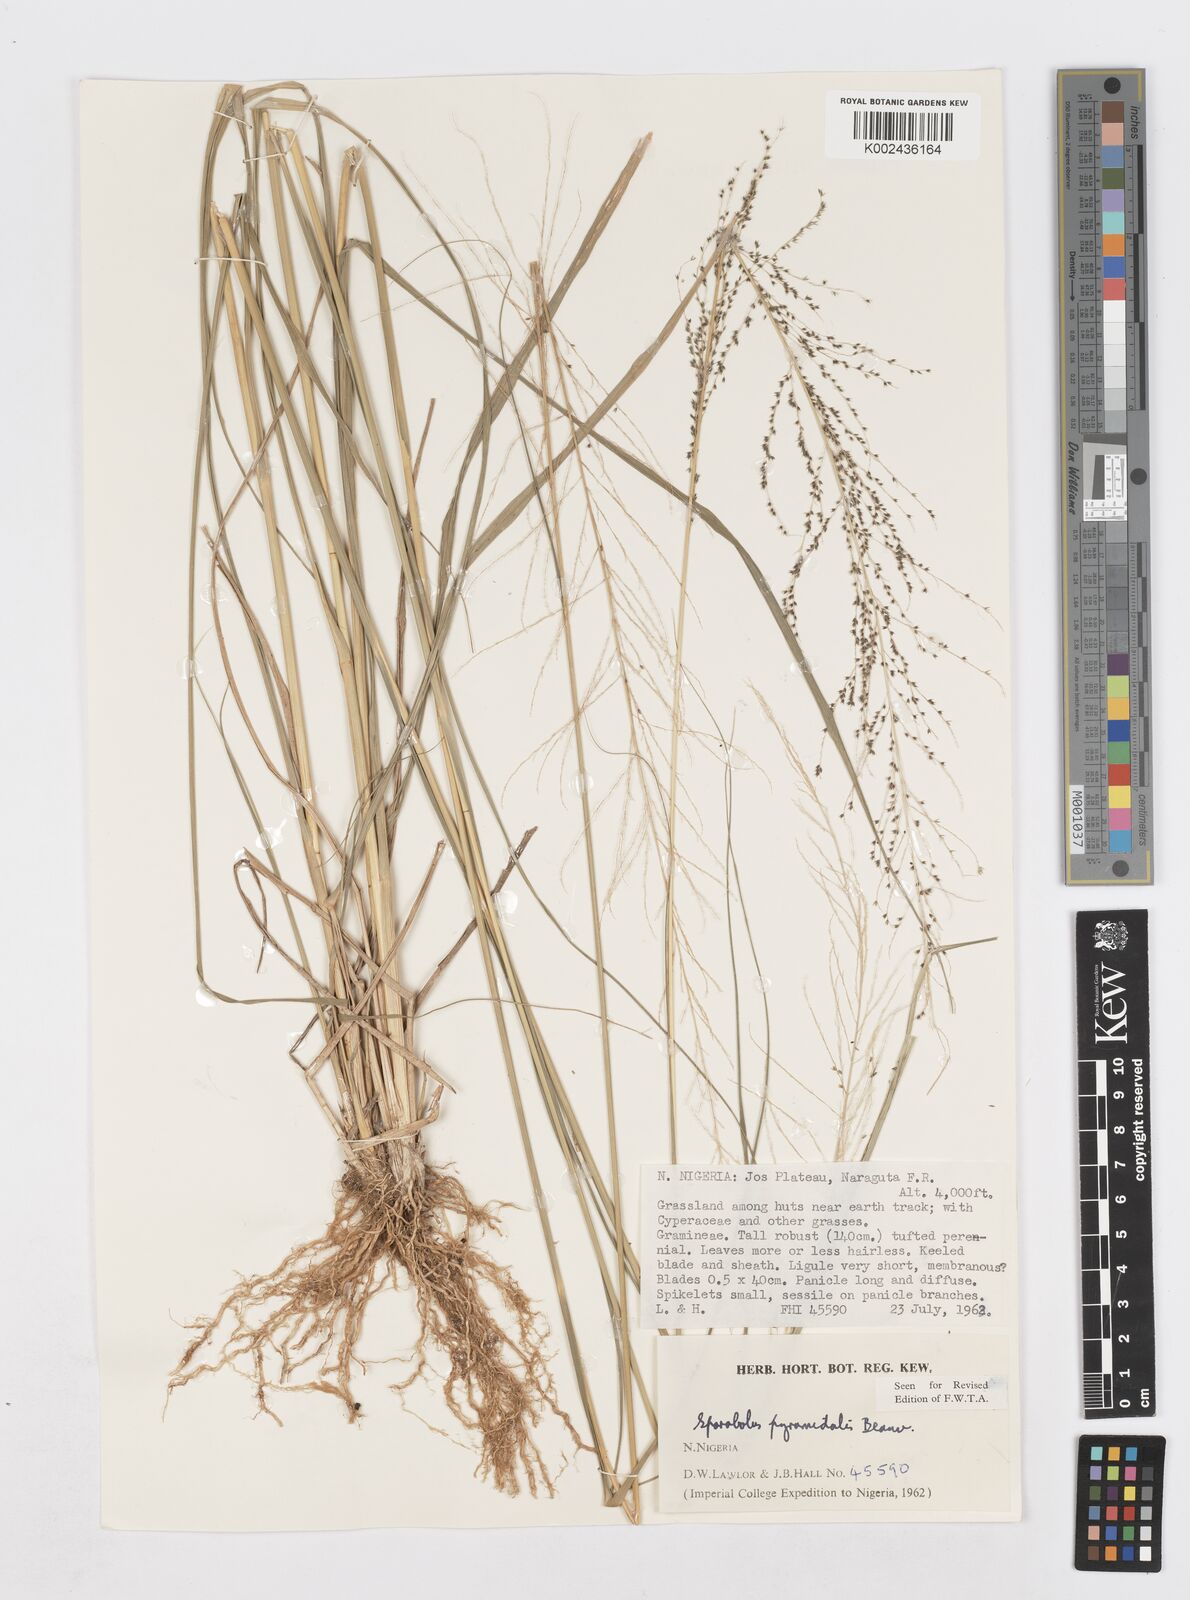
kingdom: Plantae
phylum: Tracheophyta
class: Liliopsida
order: Poales
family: Poaceae
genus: Sporobolus
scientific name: Sporobolus pyramidalis
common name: West indian dropseed
